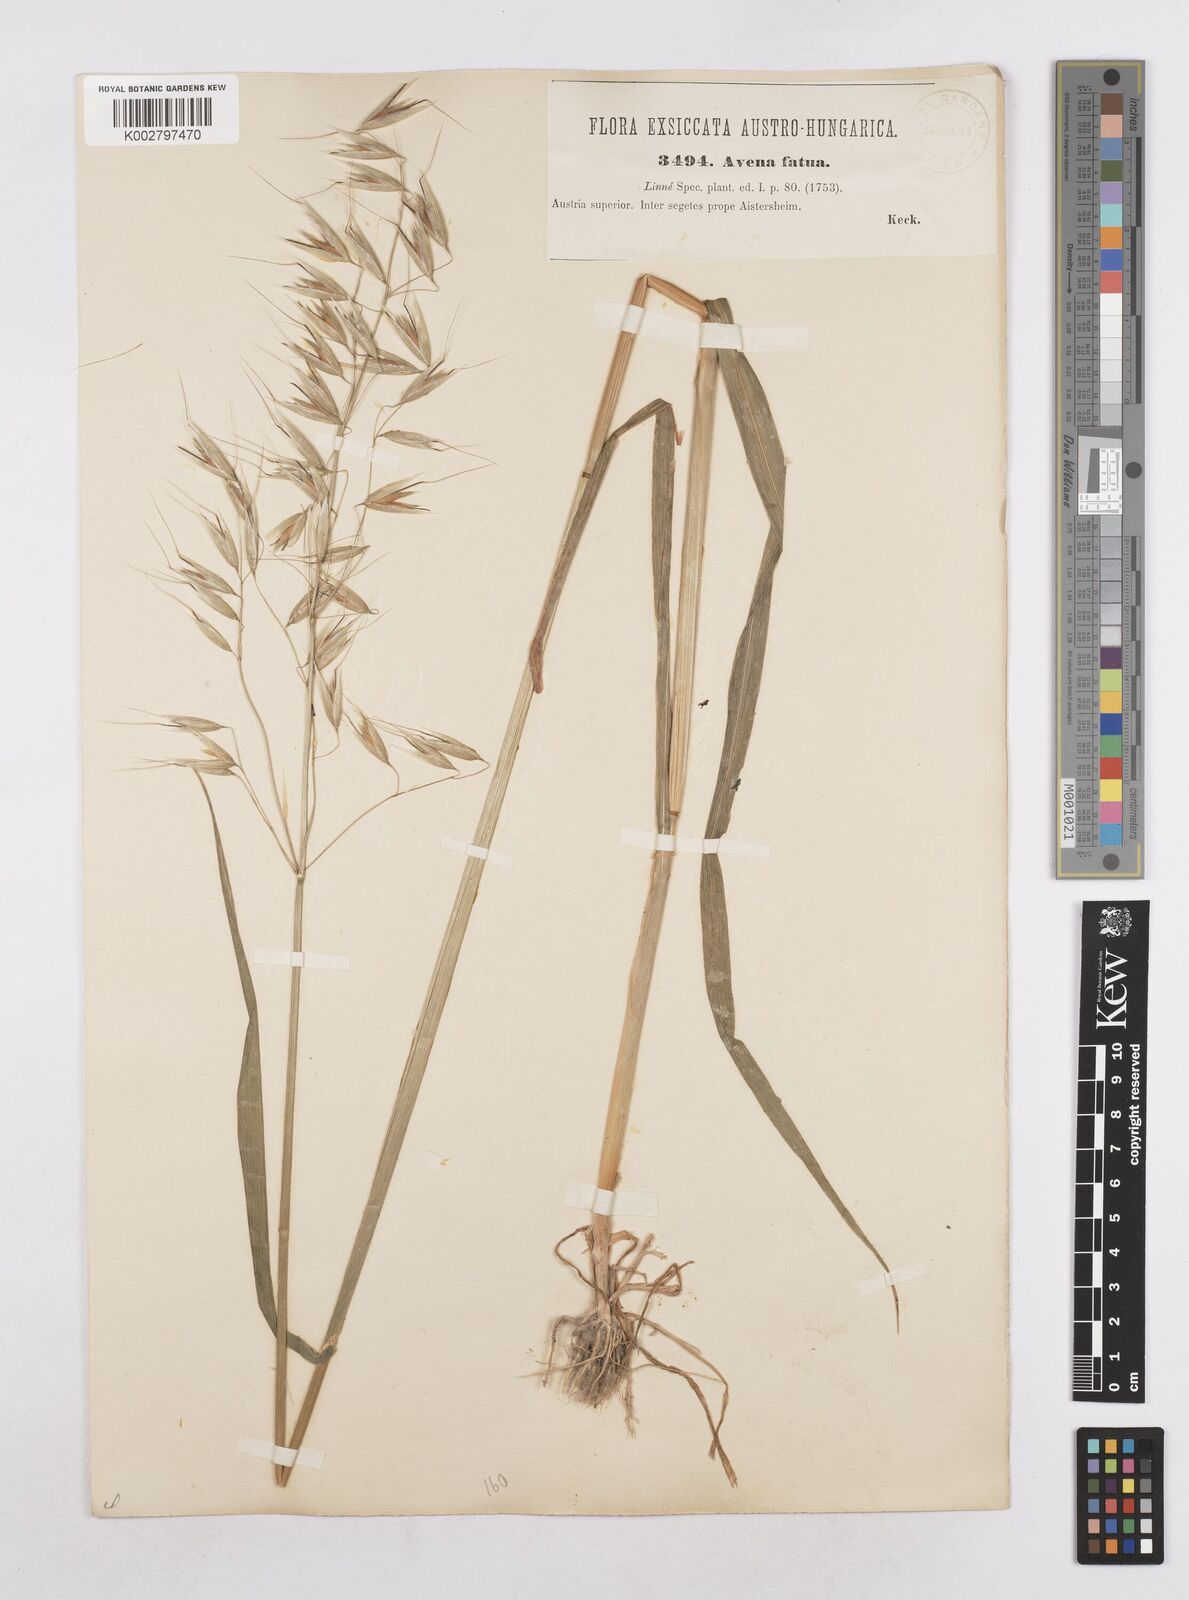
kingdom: Plantae
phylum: Tracheophyta
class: Liliopsida
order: Poales
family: Poaceae
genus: Avena
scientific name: Avena fatua
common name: Wild oat
